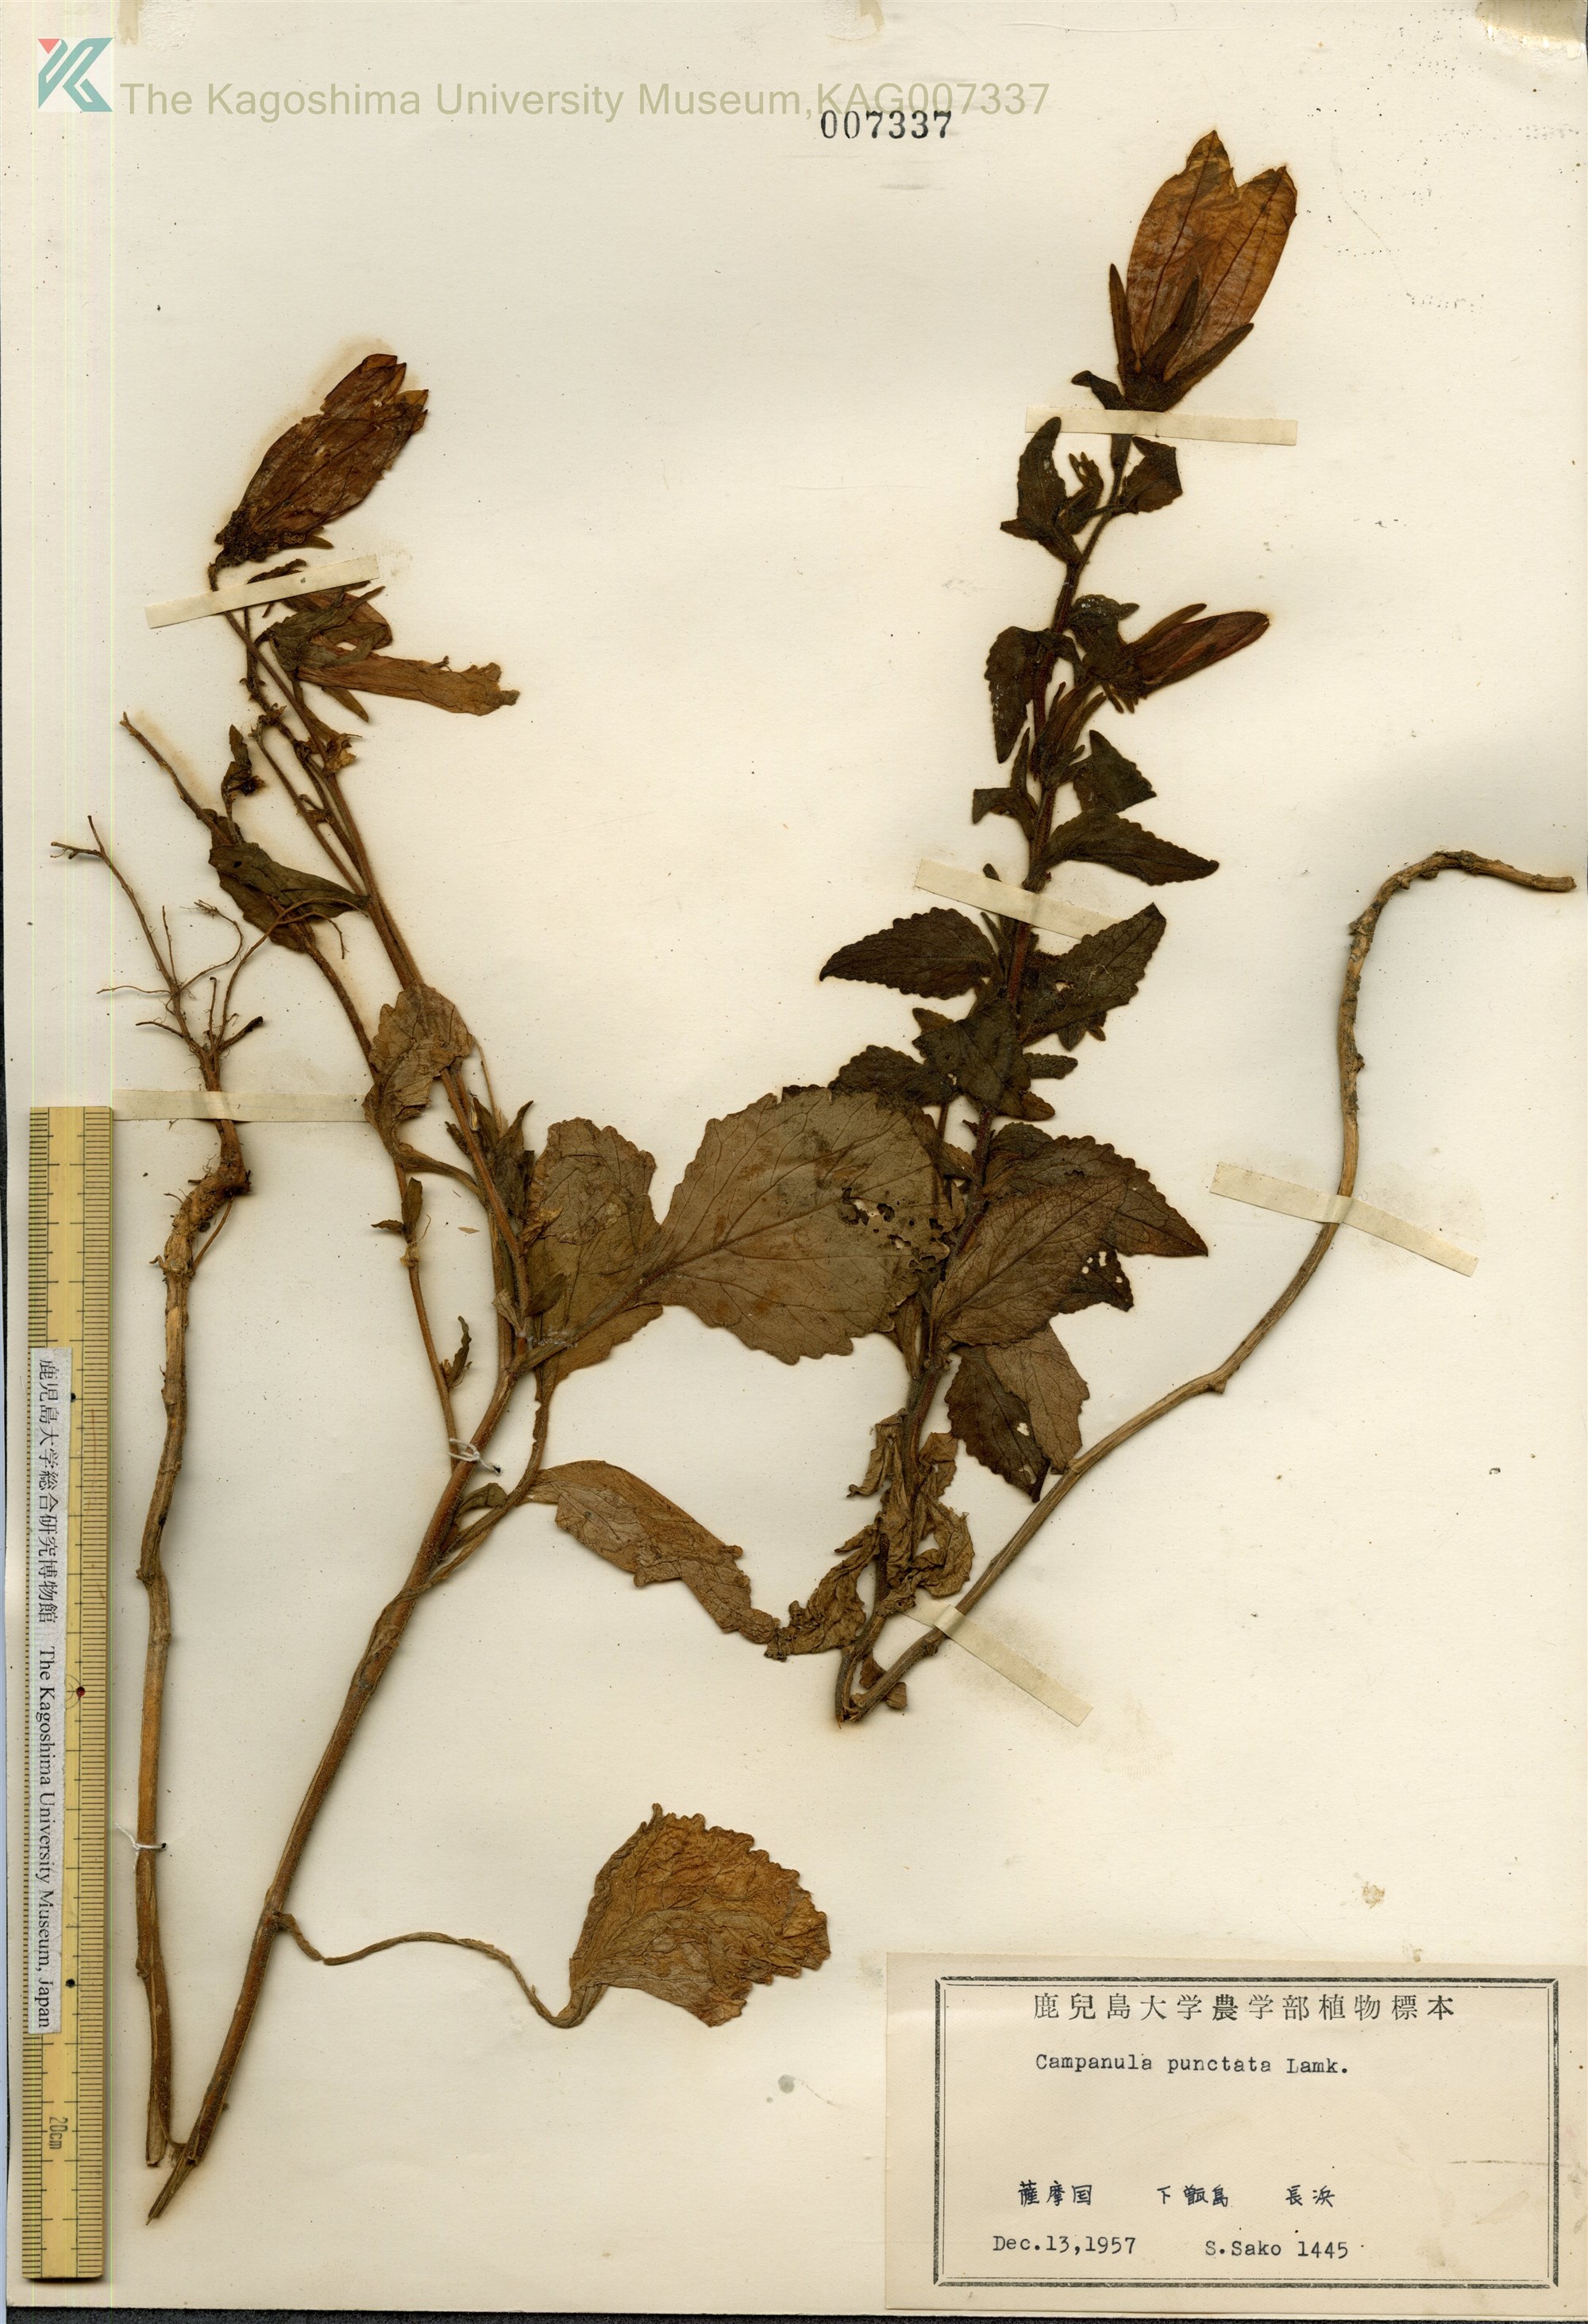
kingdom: Plantae
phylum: Tracheophyta
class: Magnoliopsida
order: Asterales
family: Campanulaceae
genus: Campanula
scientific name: Campanula punctata
